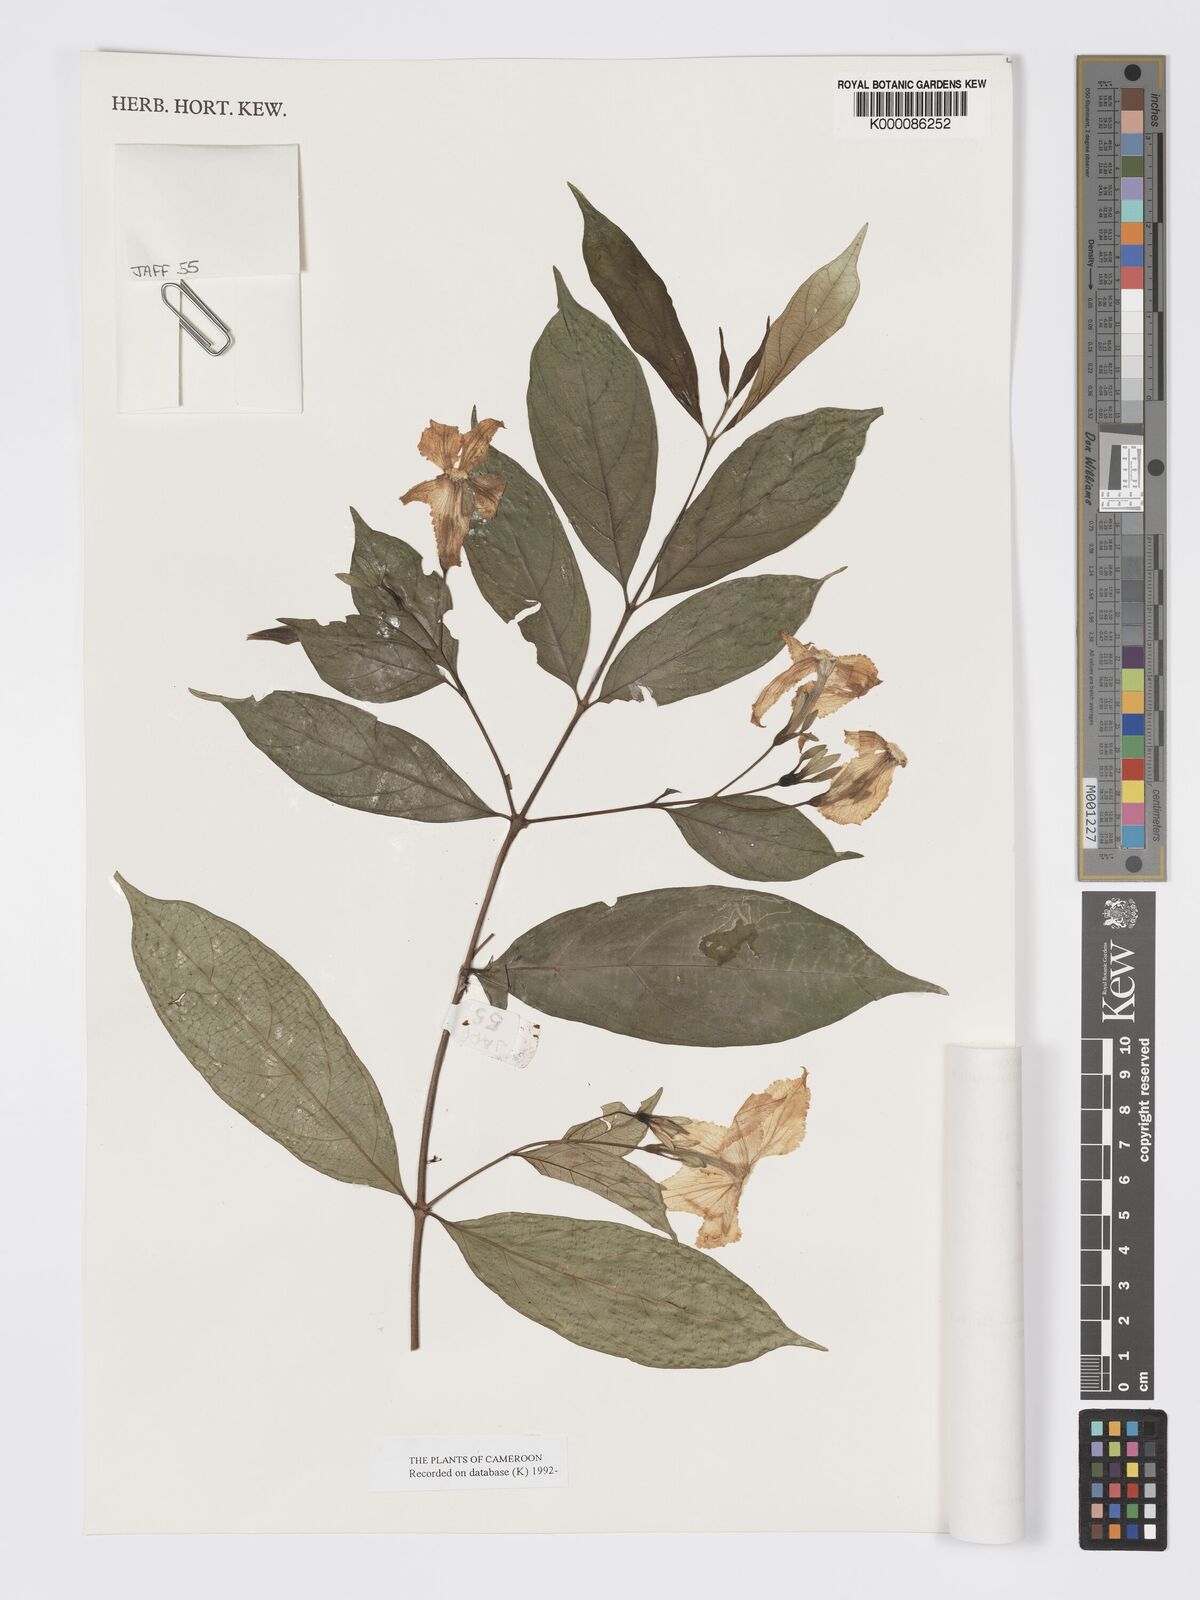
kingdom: Plantae
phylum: Tracheophyta
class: Magnoliopsida
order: Gentianales
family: Rubiaceae
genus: Heinsia
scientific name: Heinsia crinita
